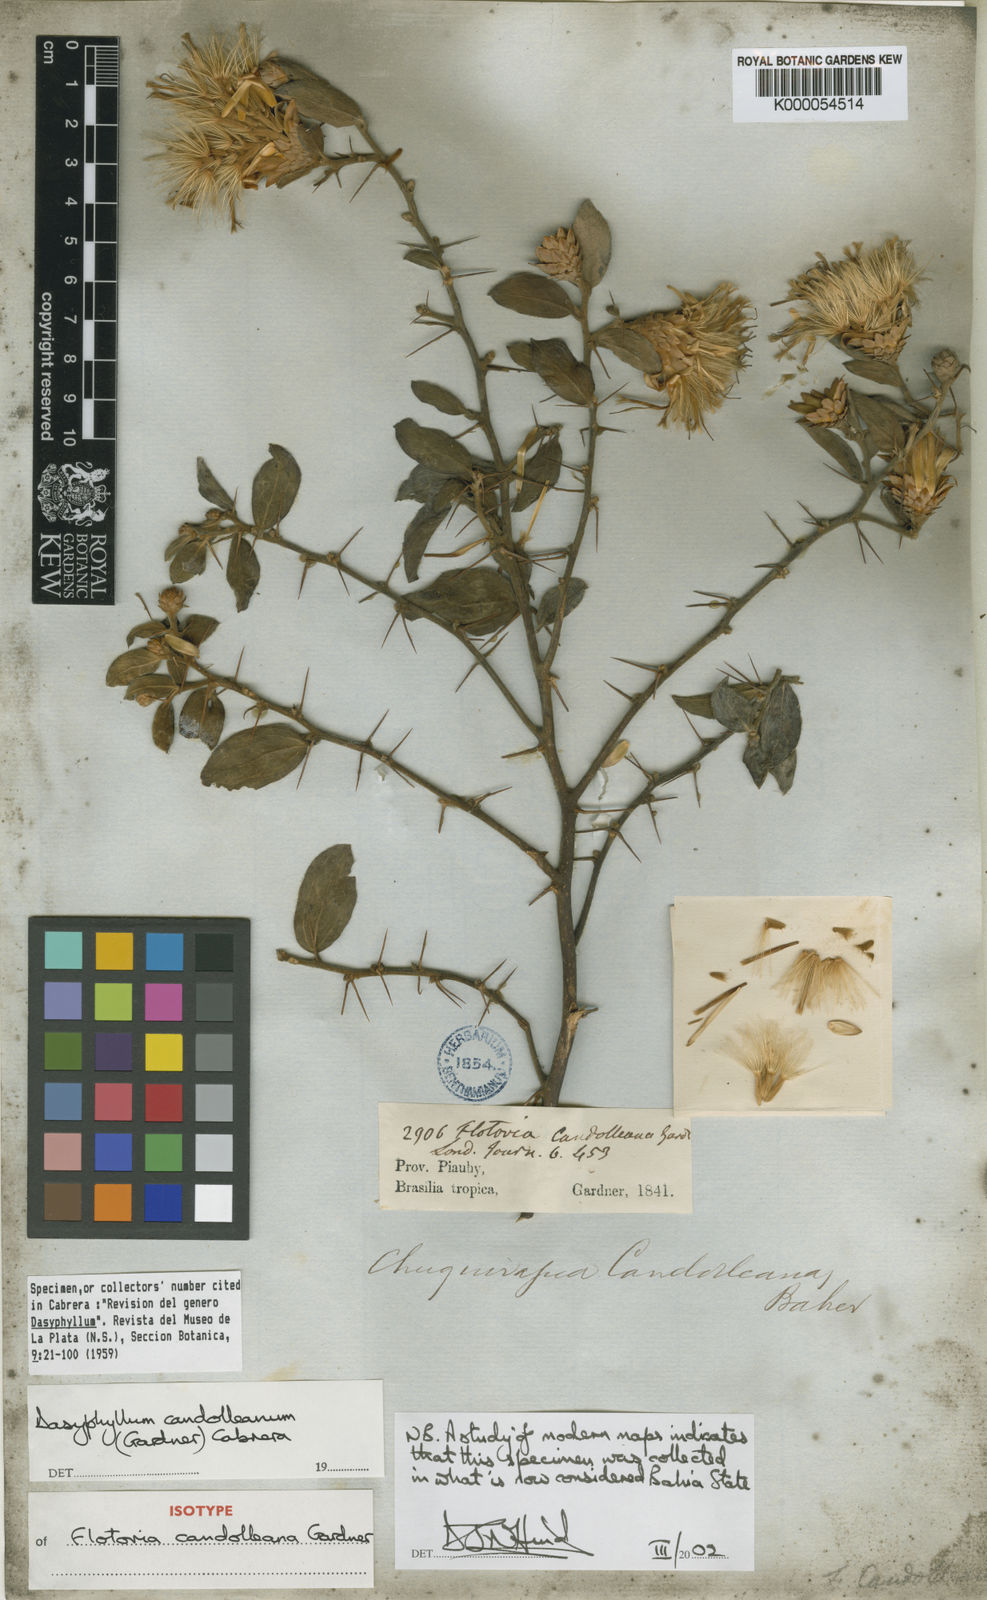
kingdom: Plantae
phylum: Tracheophyta
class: Magnoliopsida
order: Asterales
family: Asteraceae
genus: Dasyphyllum
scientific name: Dasyphyllum candolleanum
